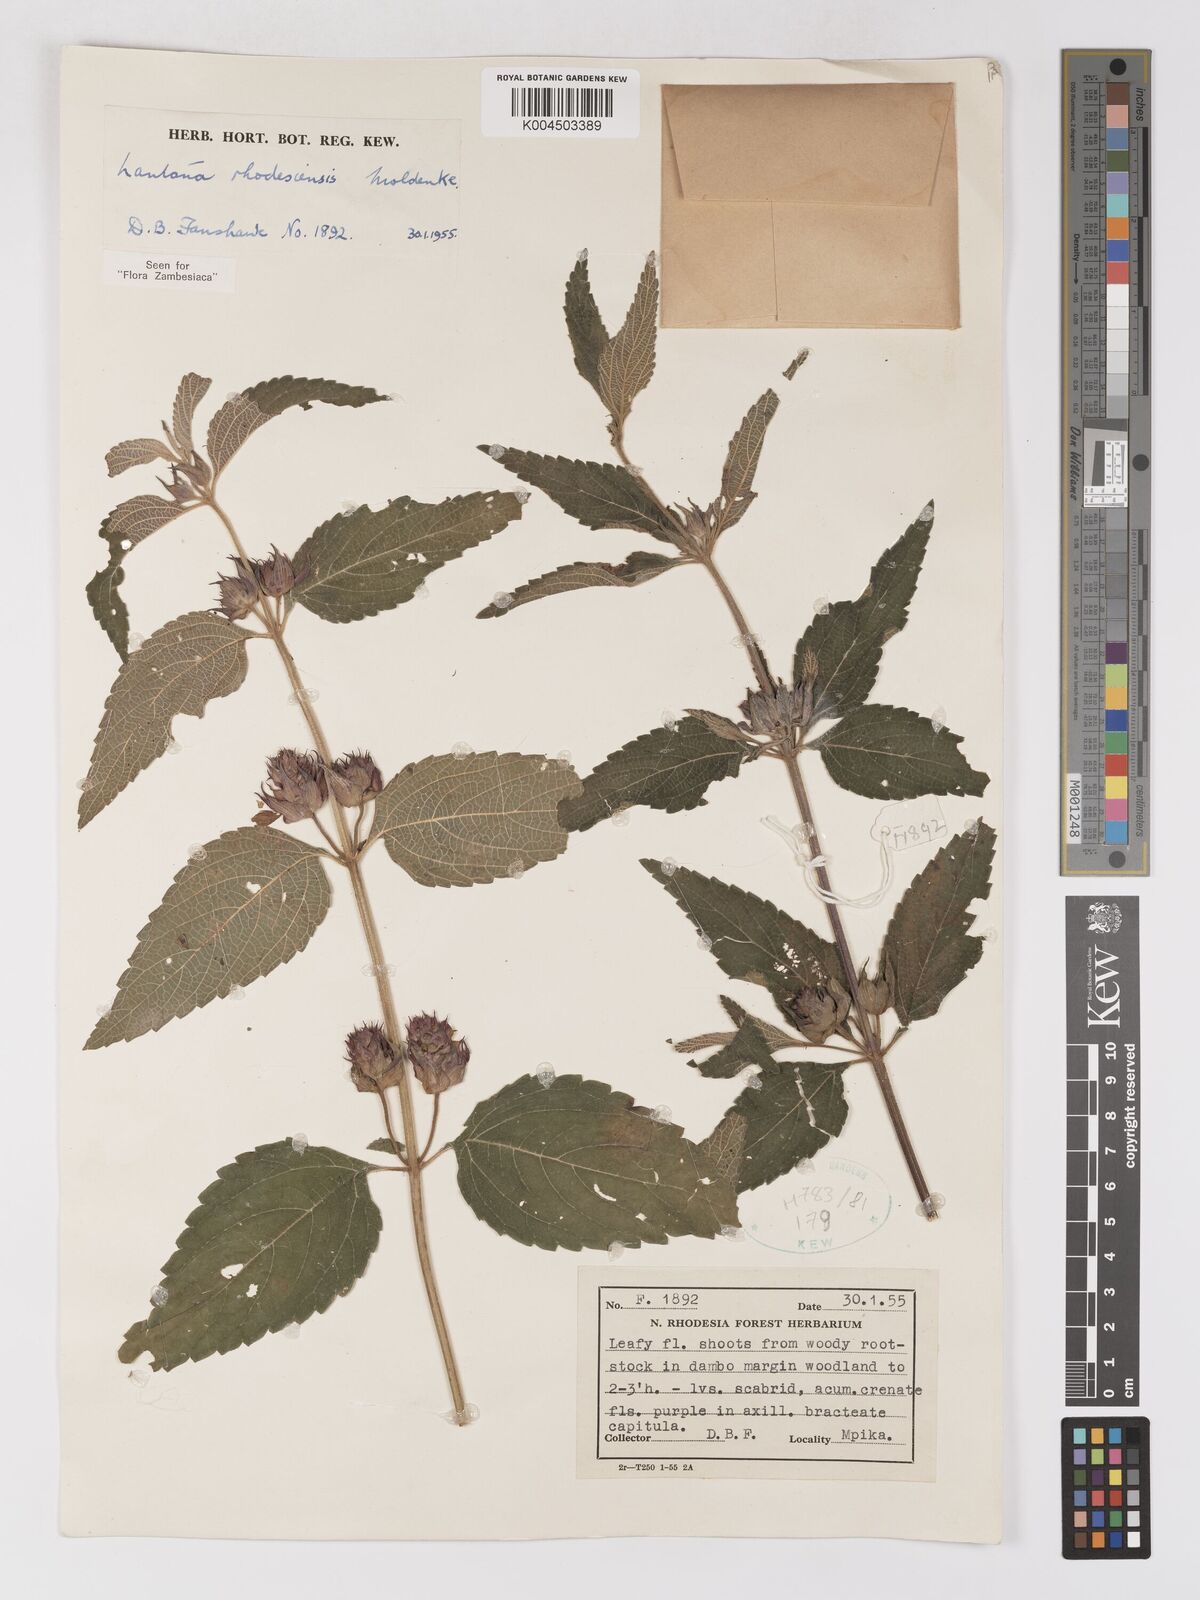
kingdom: Plantae
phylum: Tracheophyta
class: Magnoliopsida
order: Lamiales
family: Verbenaceae
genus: Lantana
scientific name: Lantana ukambensis
